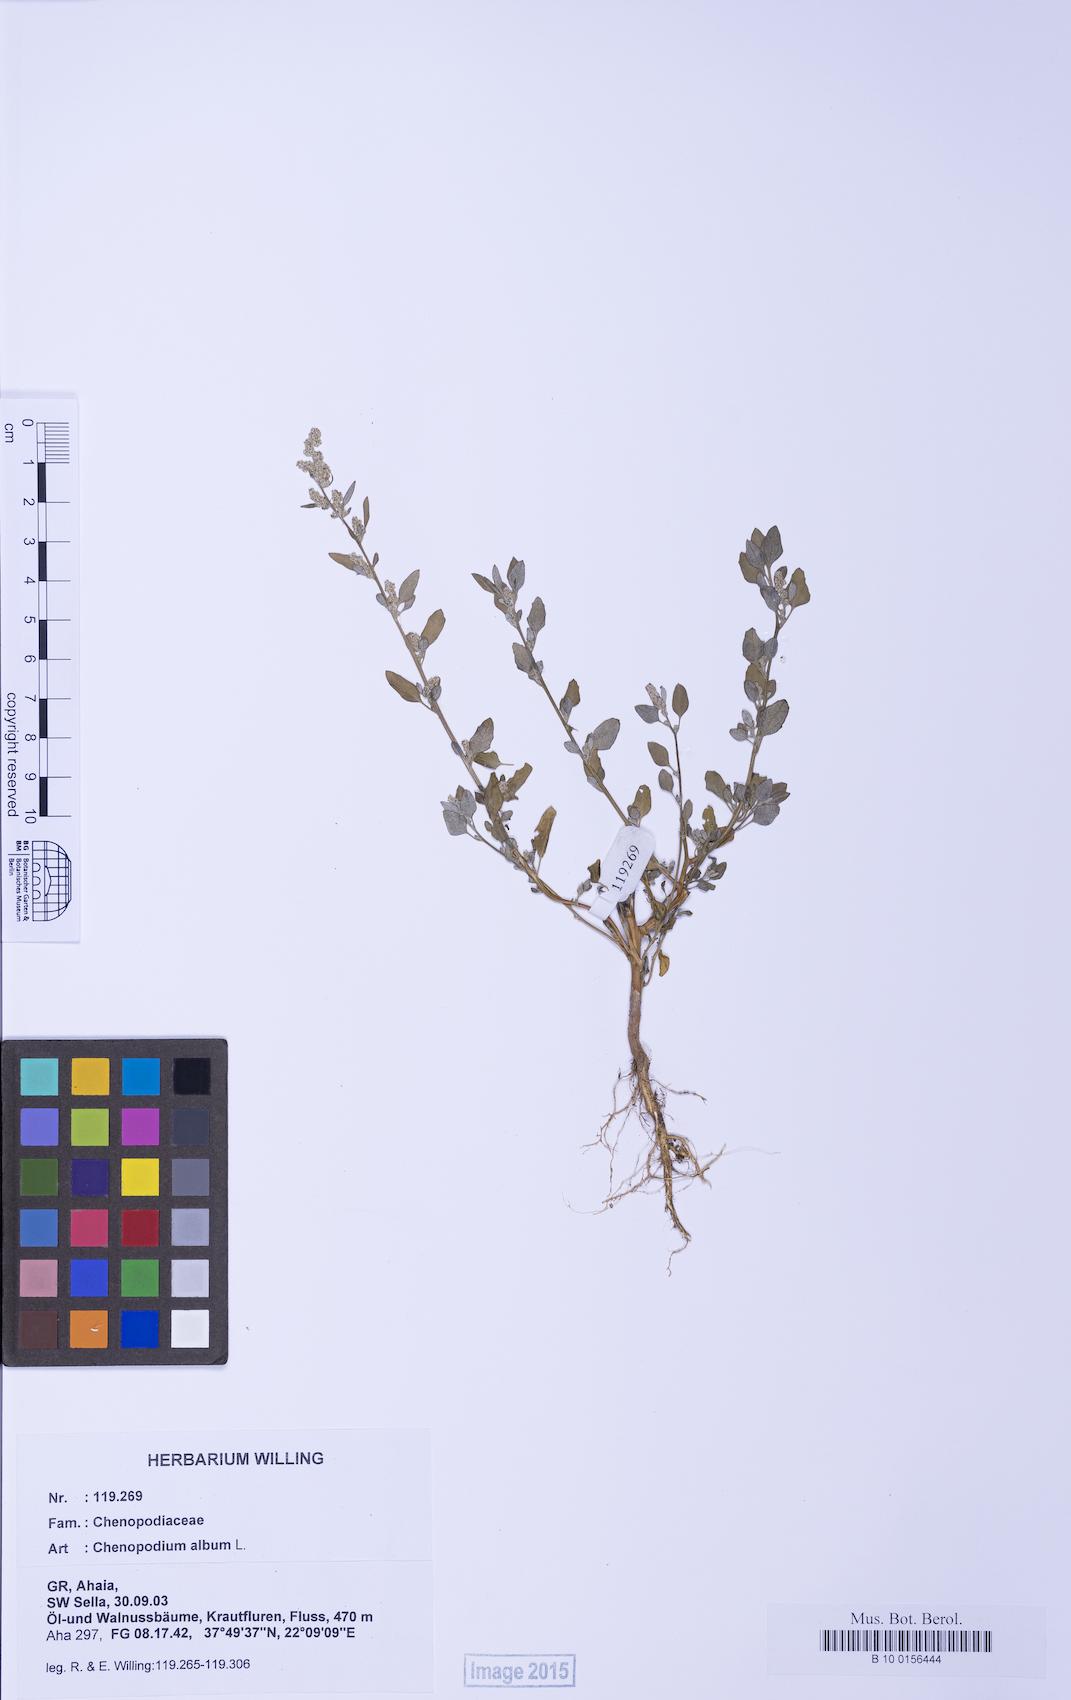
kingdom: Plantae
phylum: Tracheophyta
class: Magnoliopsida
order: Caryophyllales
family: Amaranthaceae
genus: Chenopodium
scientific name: Chenopodium album
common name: Fat-hen
